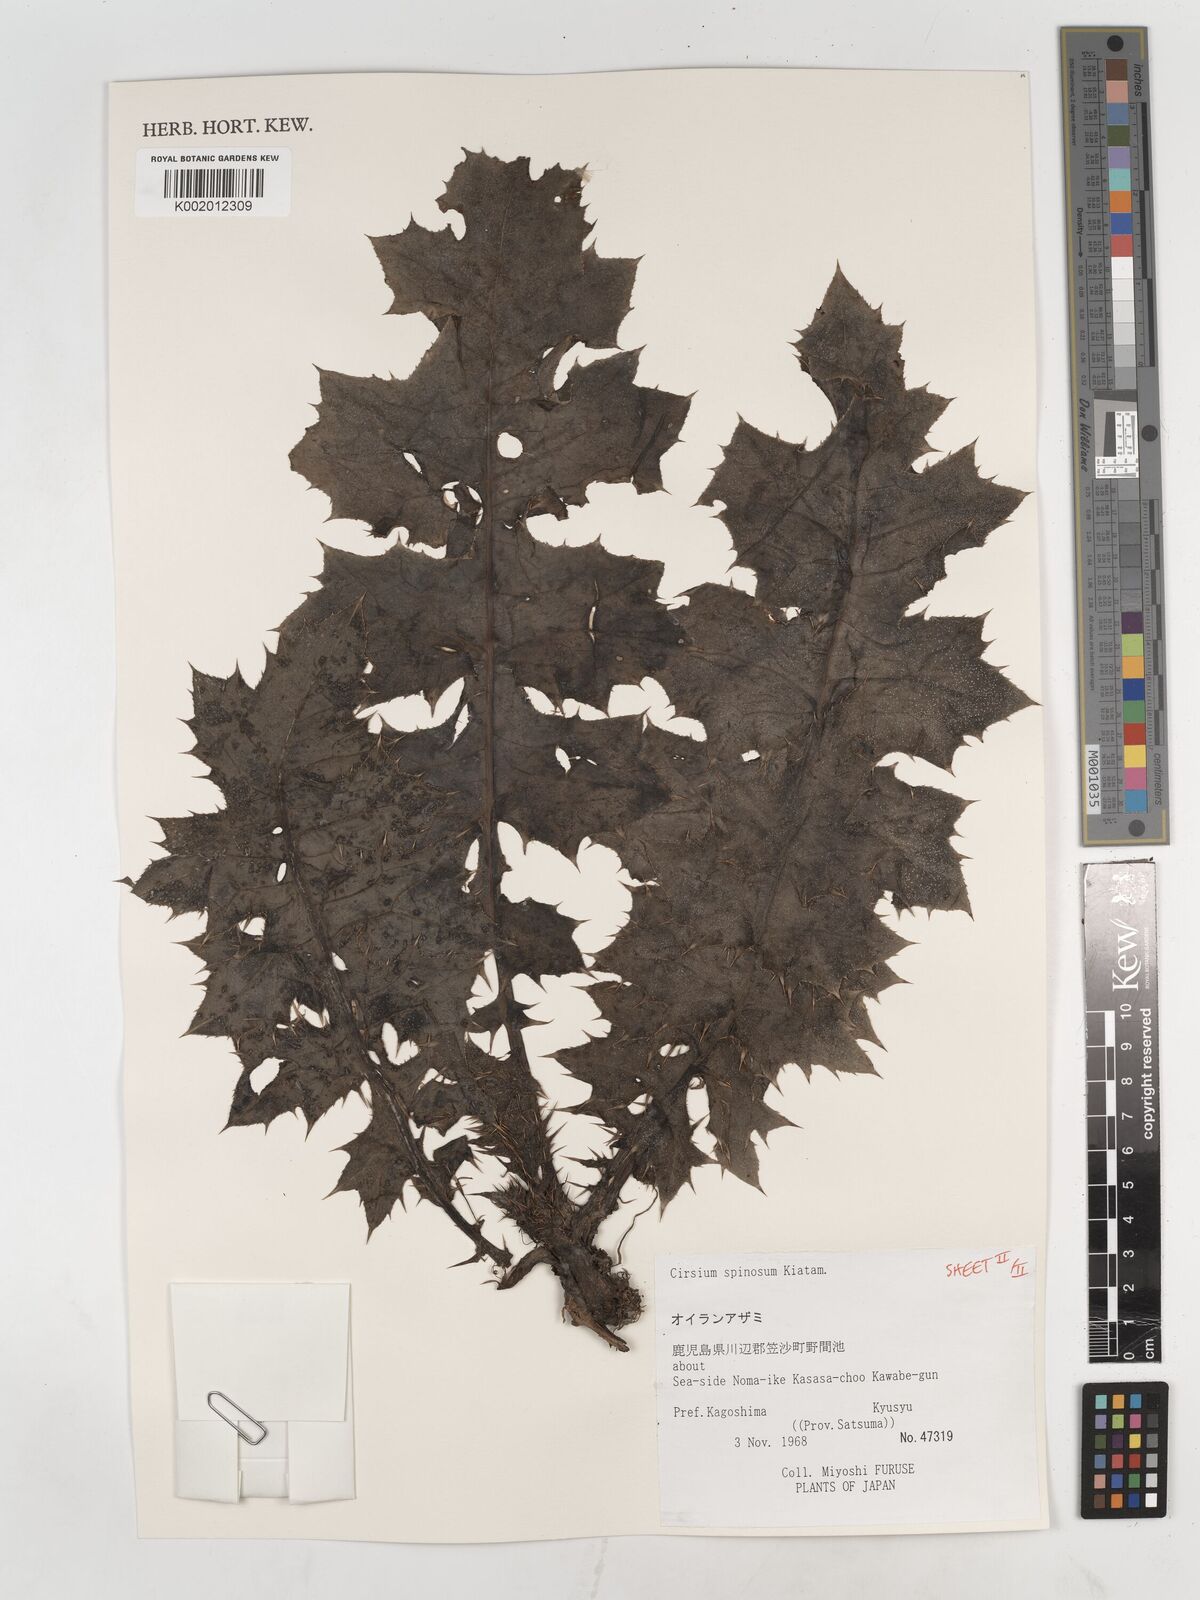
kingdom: Plantae
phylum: Tracheophyta
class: Magnoliopsida
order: Asterales
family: Asteraceae
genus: Cirsium
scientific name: Cirsium spinosum
